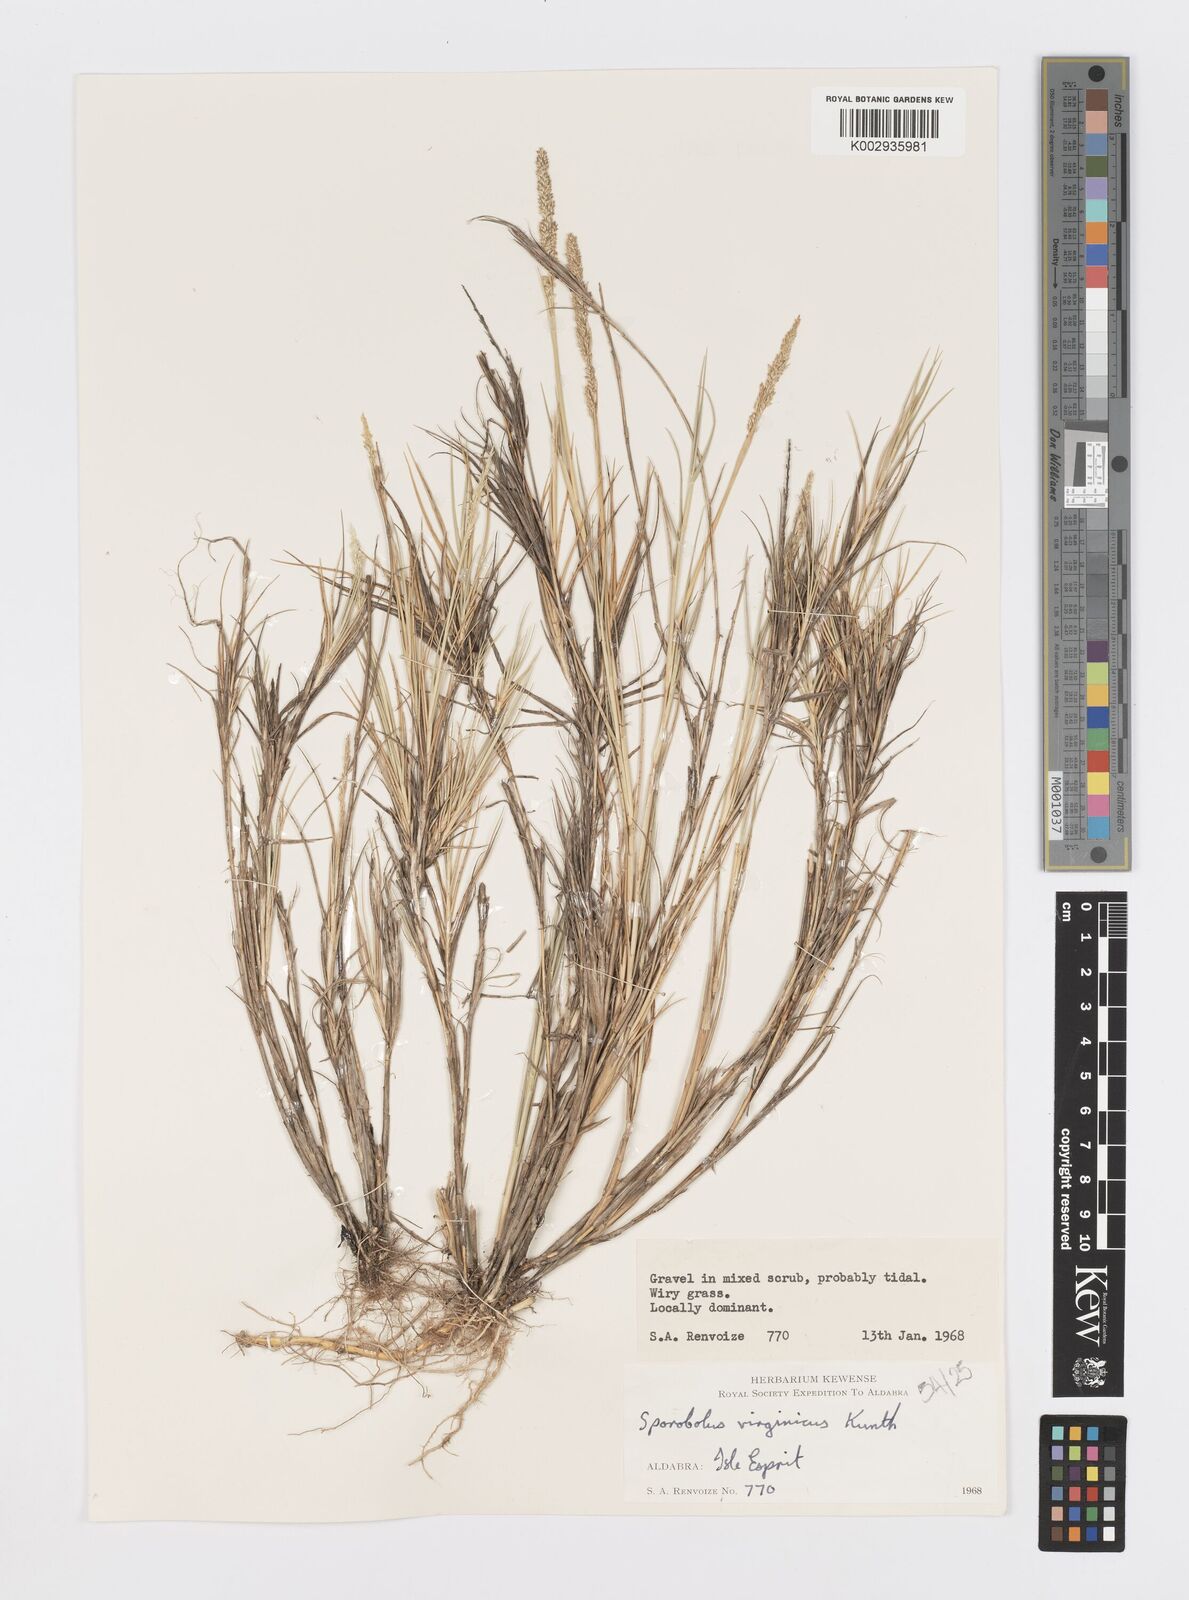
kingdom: Plantae
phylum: Tracheophyta
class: Liliopsida
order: Poales
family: Poaceae
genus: Sporobolus
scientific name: Sporobolus virginicus
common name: Beach dropseed
